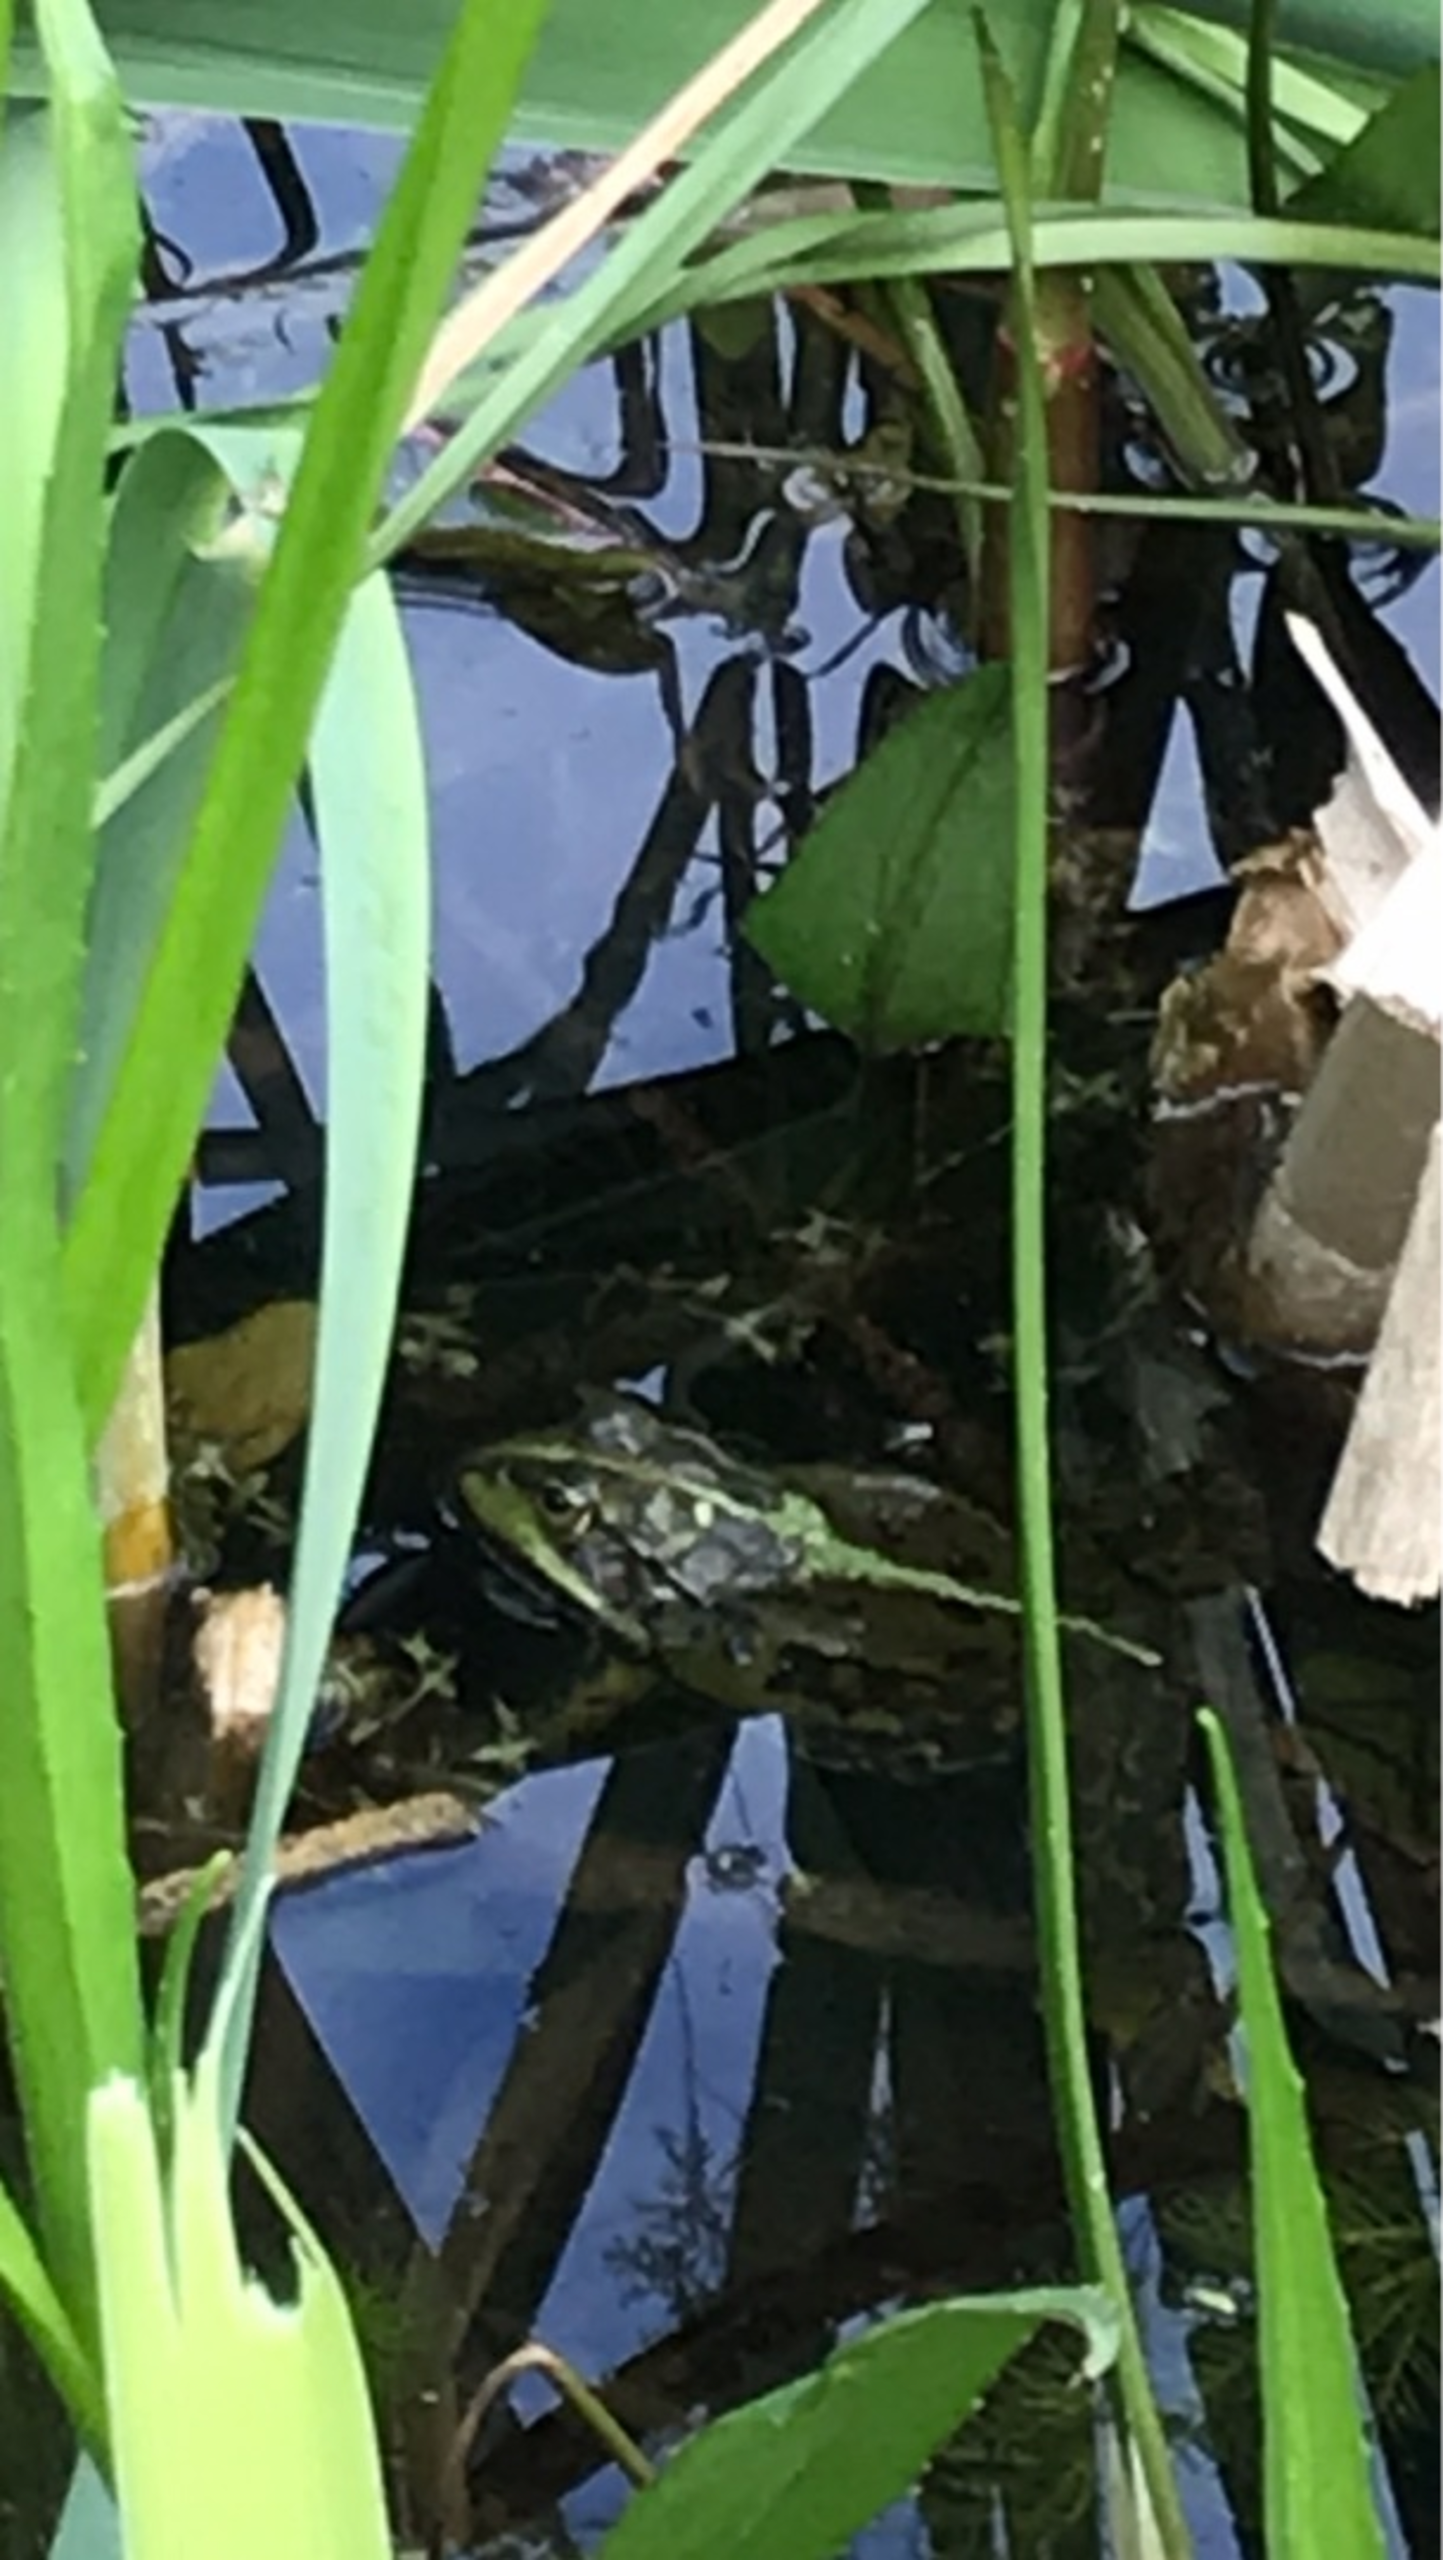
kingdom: Animalia
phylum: Chordata
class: Amphibia
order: Anura
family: Ranidae
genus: Pelophylax
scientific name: Pelophylax lessonae
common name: Grøn frø
